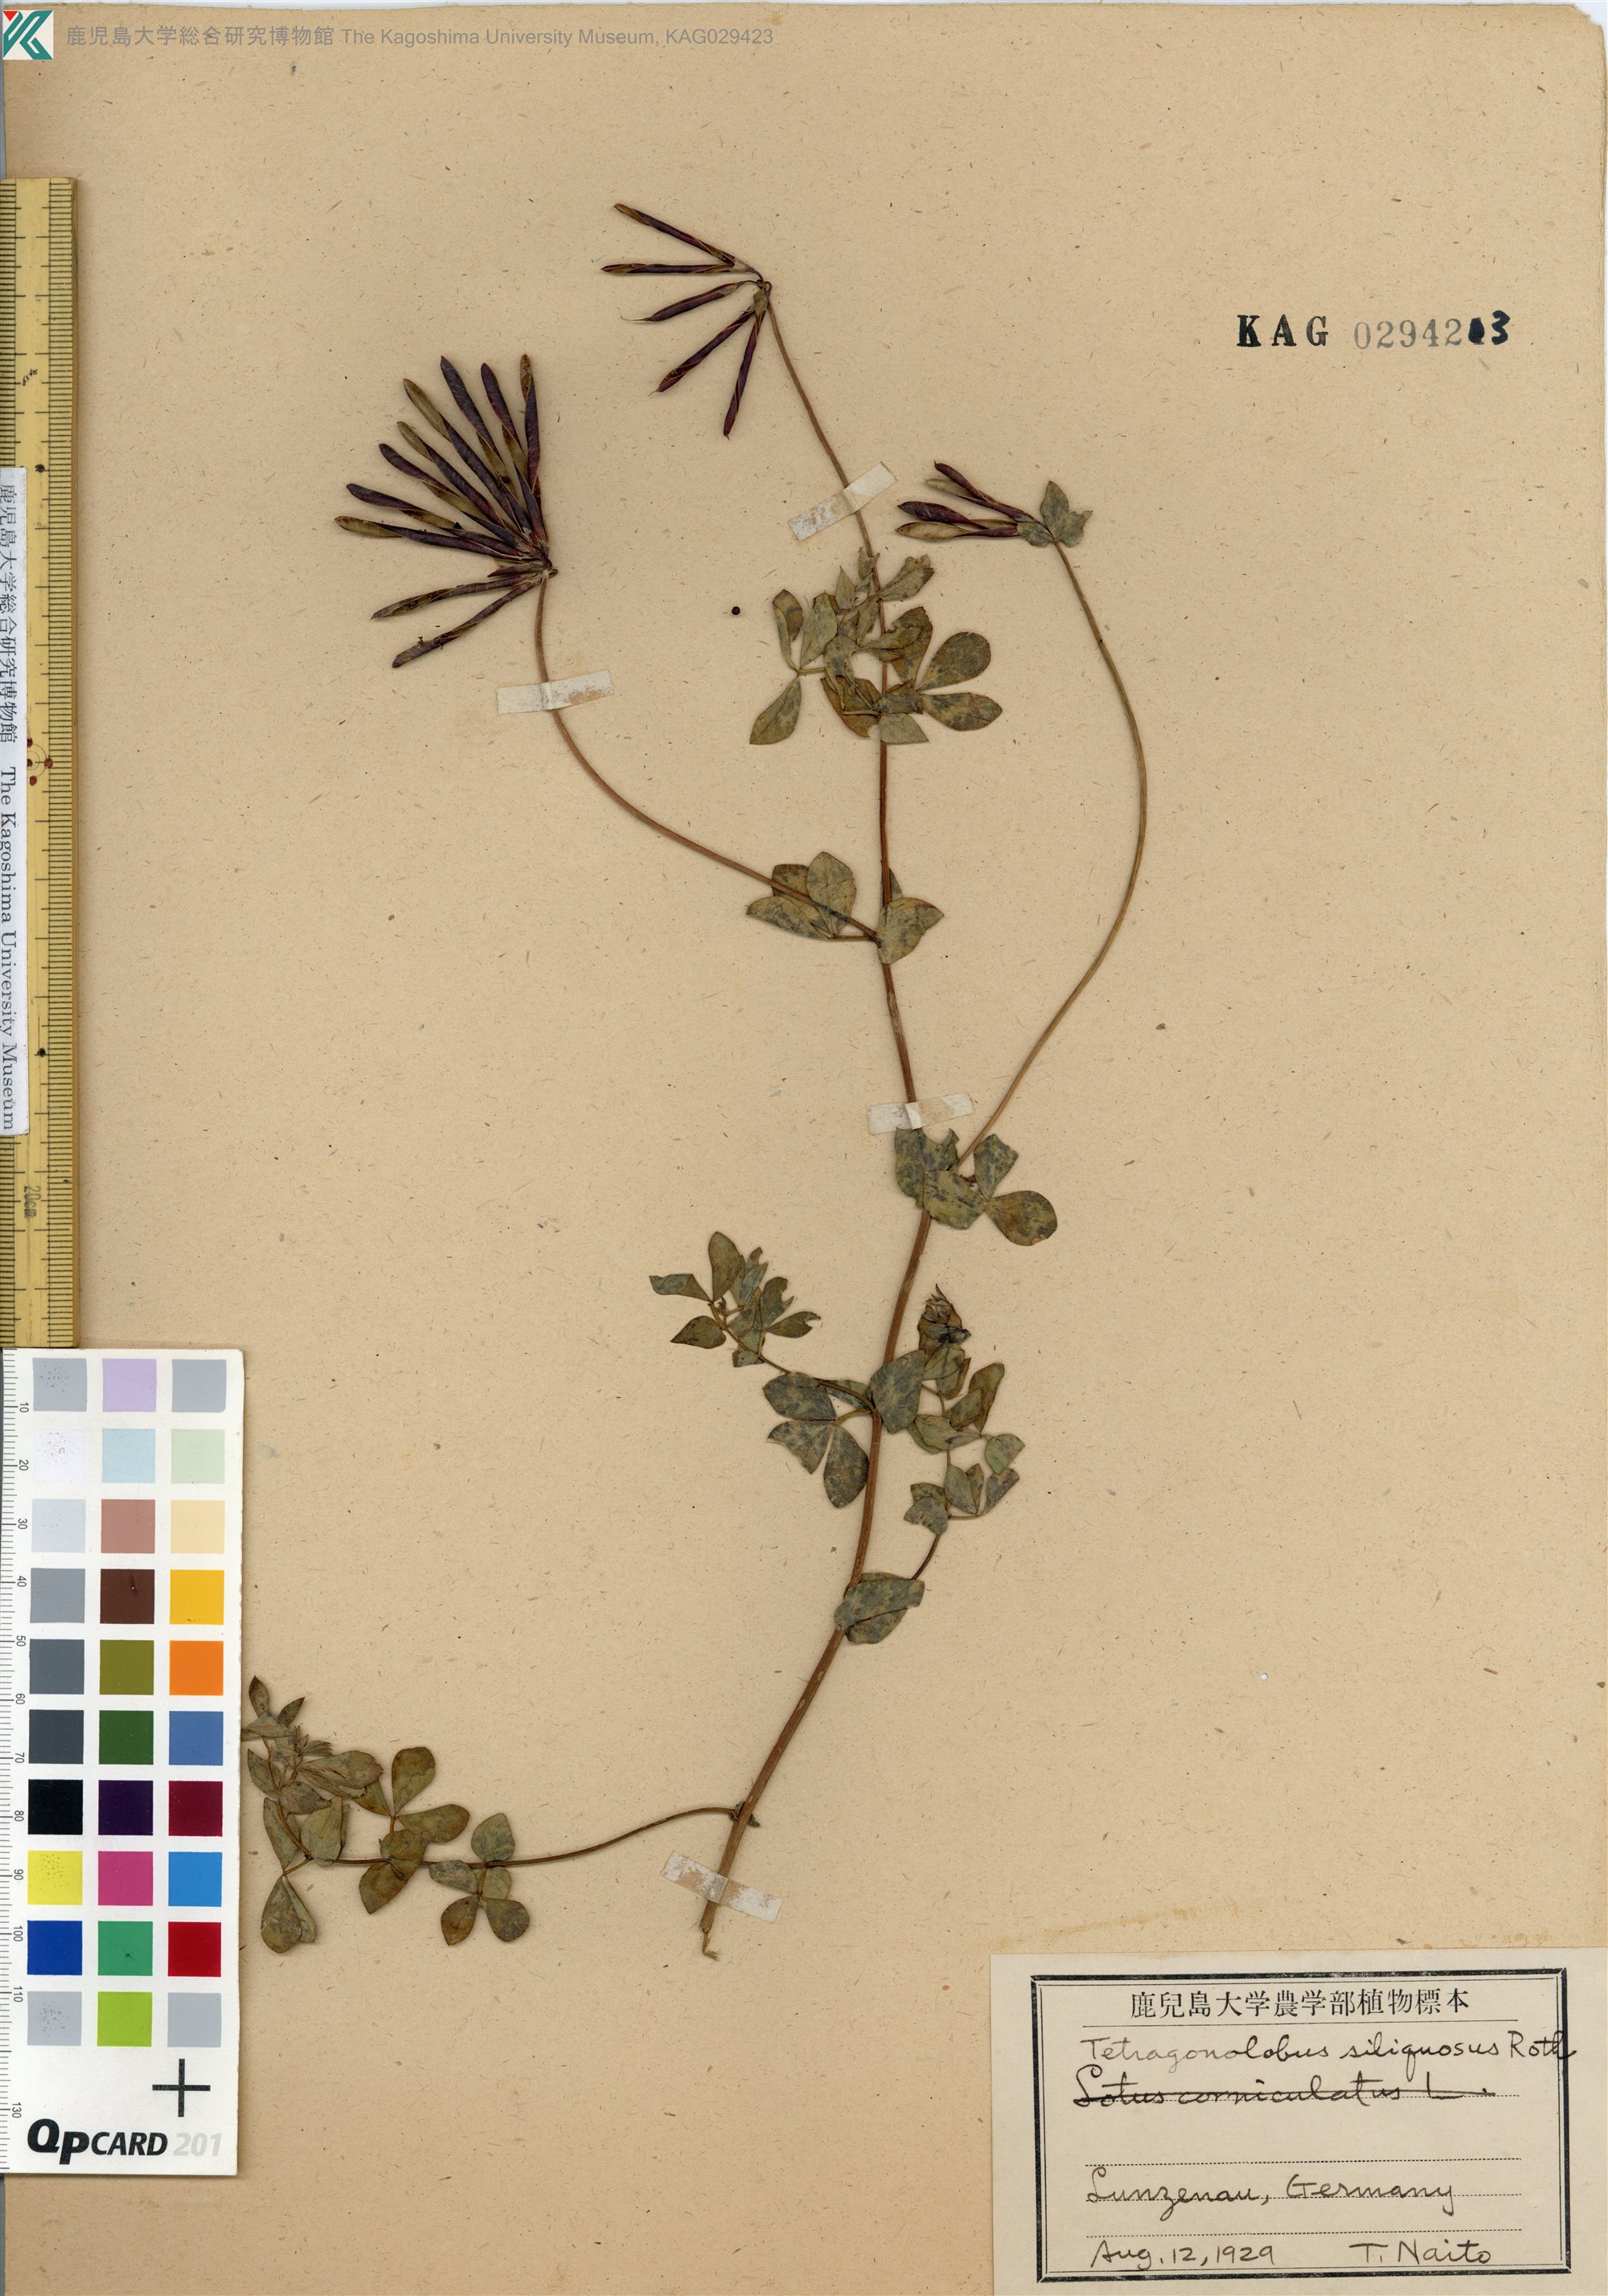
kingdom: Plantae
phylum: Tracheophyta
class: Magnoliopsida
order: Fabales
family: Fabaceae
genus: Lathyrus
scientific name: Lathyrus inconspicuus
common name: Inconspicuous pea
